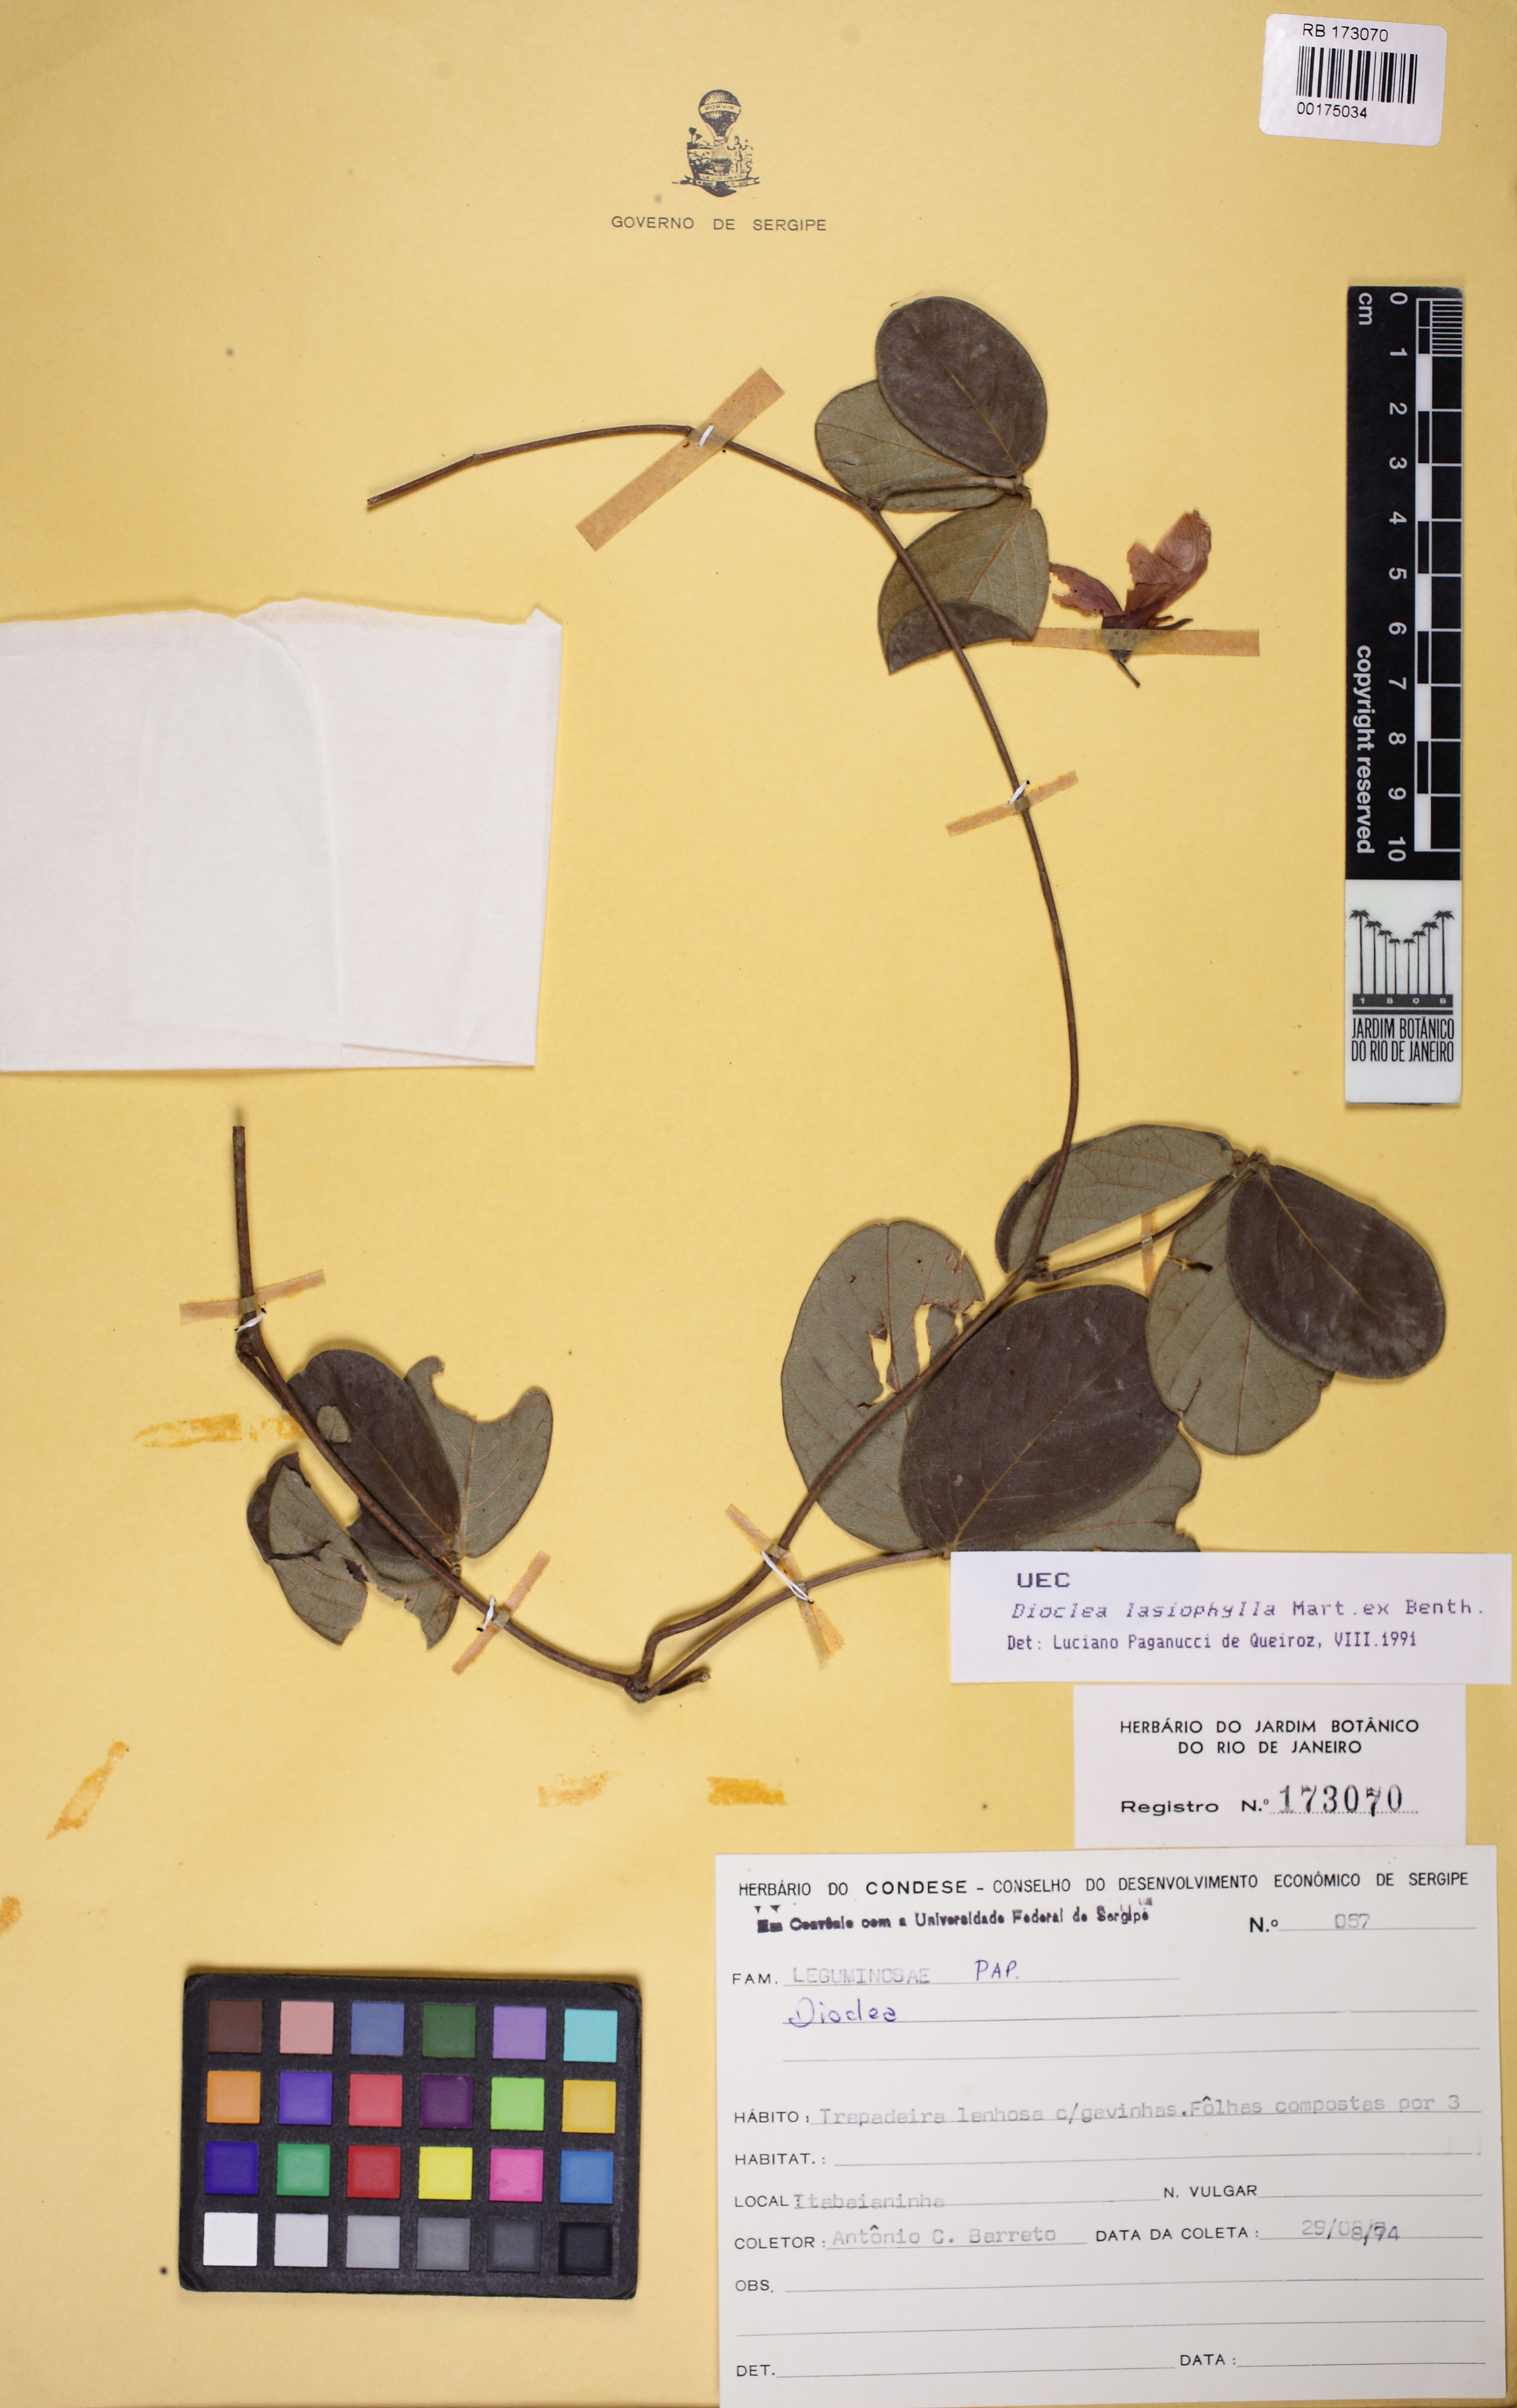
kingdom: Plantae
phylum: Tracheophyta
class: Magnoliopsida
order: Fabales
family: Fabaceae
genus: Dioclea
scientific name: Dioclea lasiophylla
